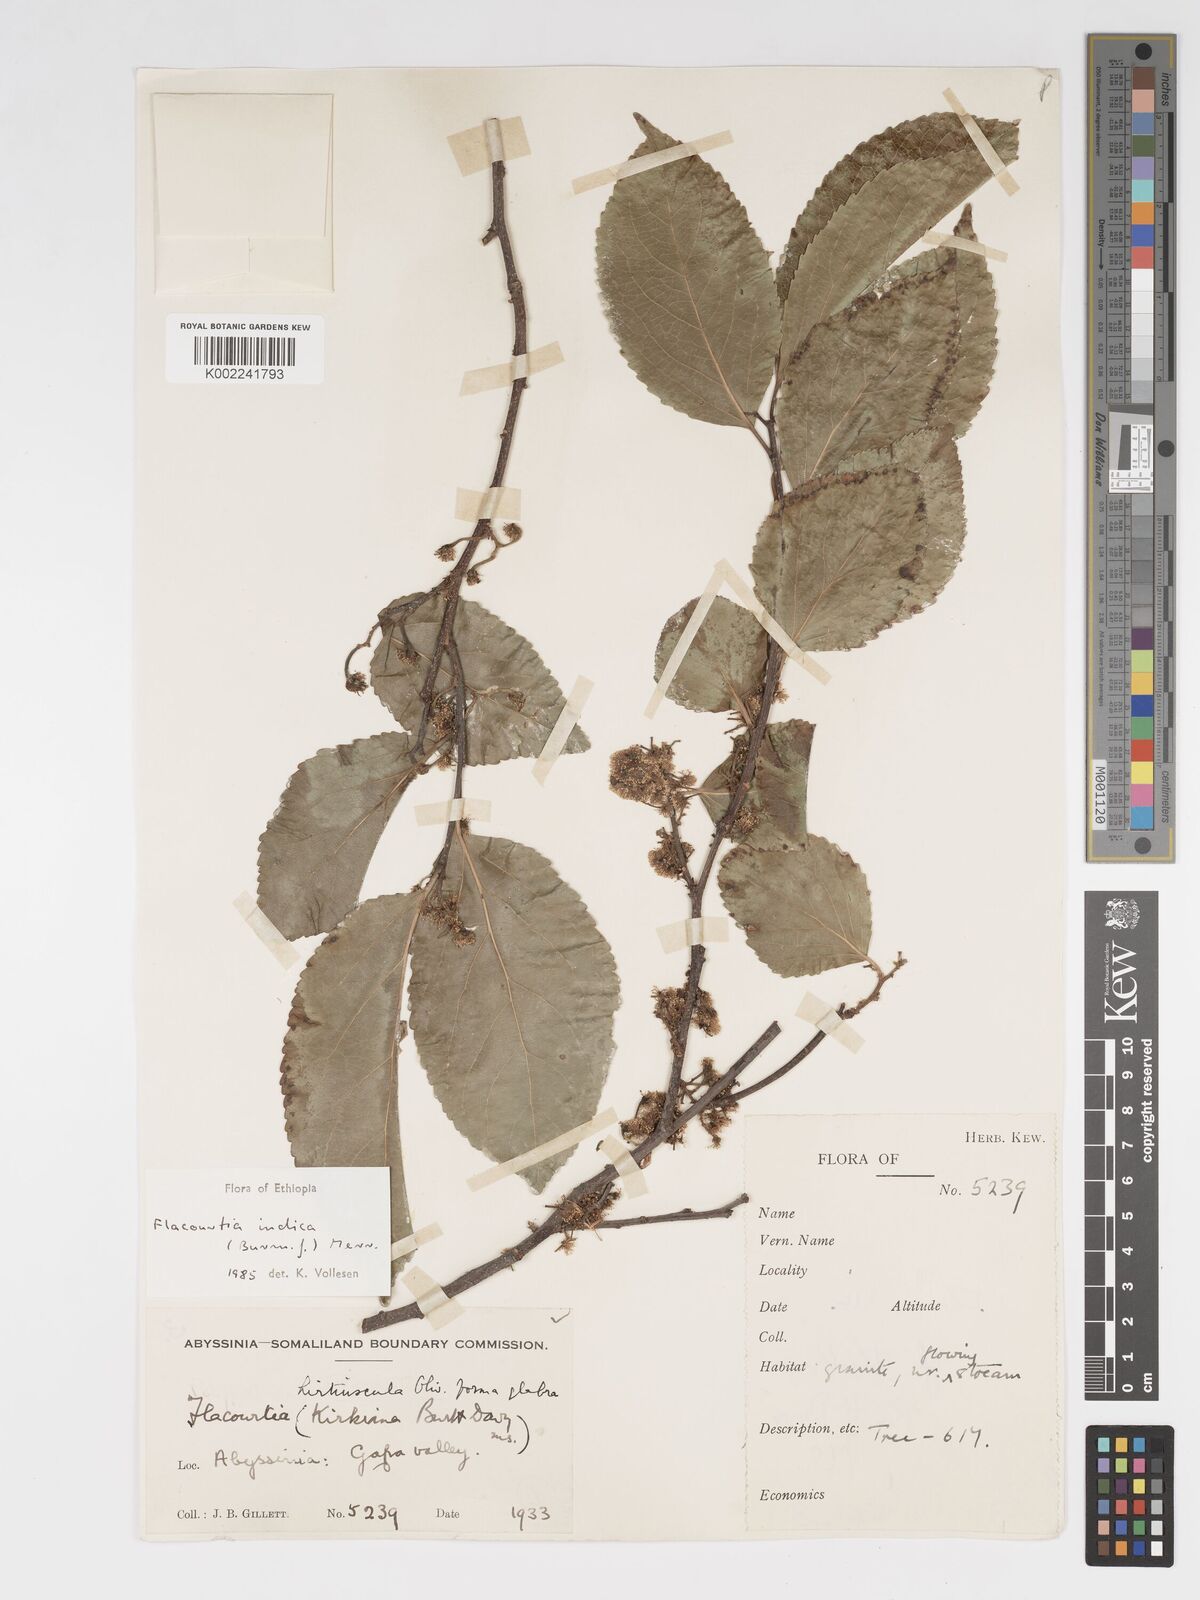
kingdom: Plantae
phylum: Tracheophyta
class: Magnoliopsida
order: Malpighiales
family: Salicaceae
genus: Flacourtia
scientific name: Flacourtia indica
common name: Governor's plum
